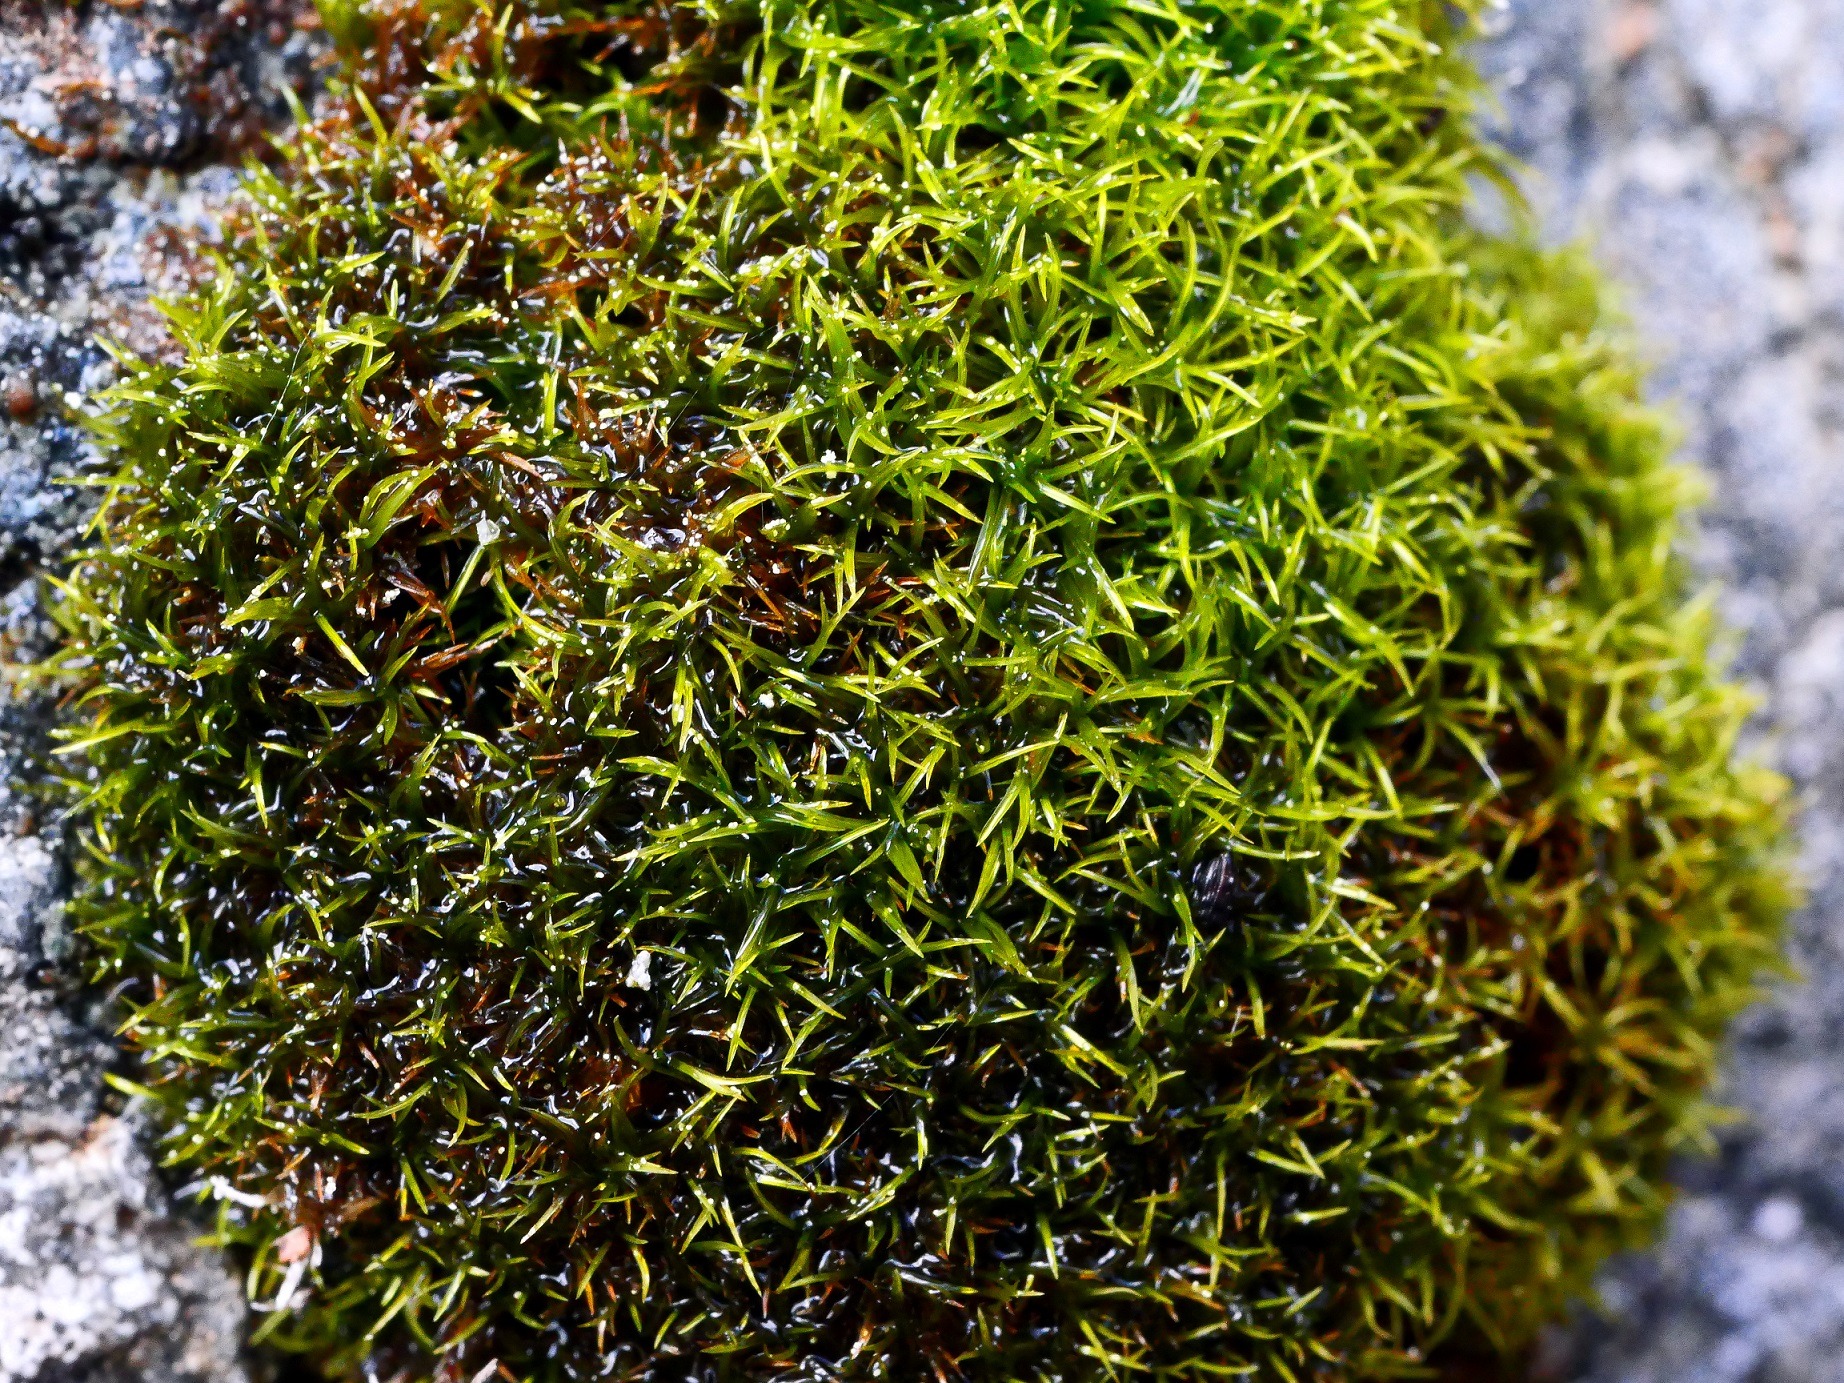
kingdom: Plantae
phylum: Bryophyta
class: Bryopsida
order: Dicranales
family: Amphidiaceae
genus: Amphidium
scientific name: Amphidium mougeotii
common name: Skør pudemos
